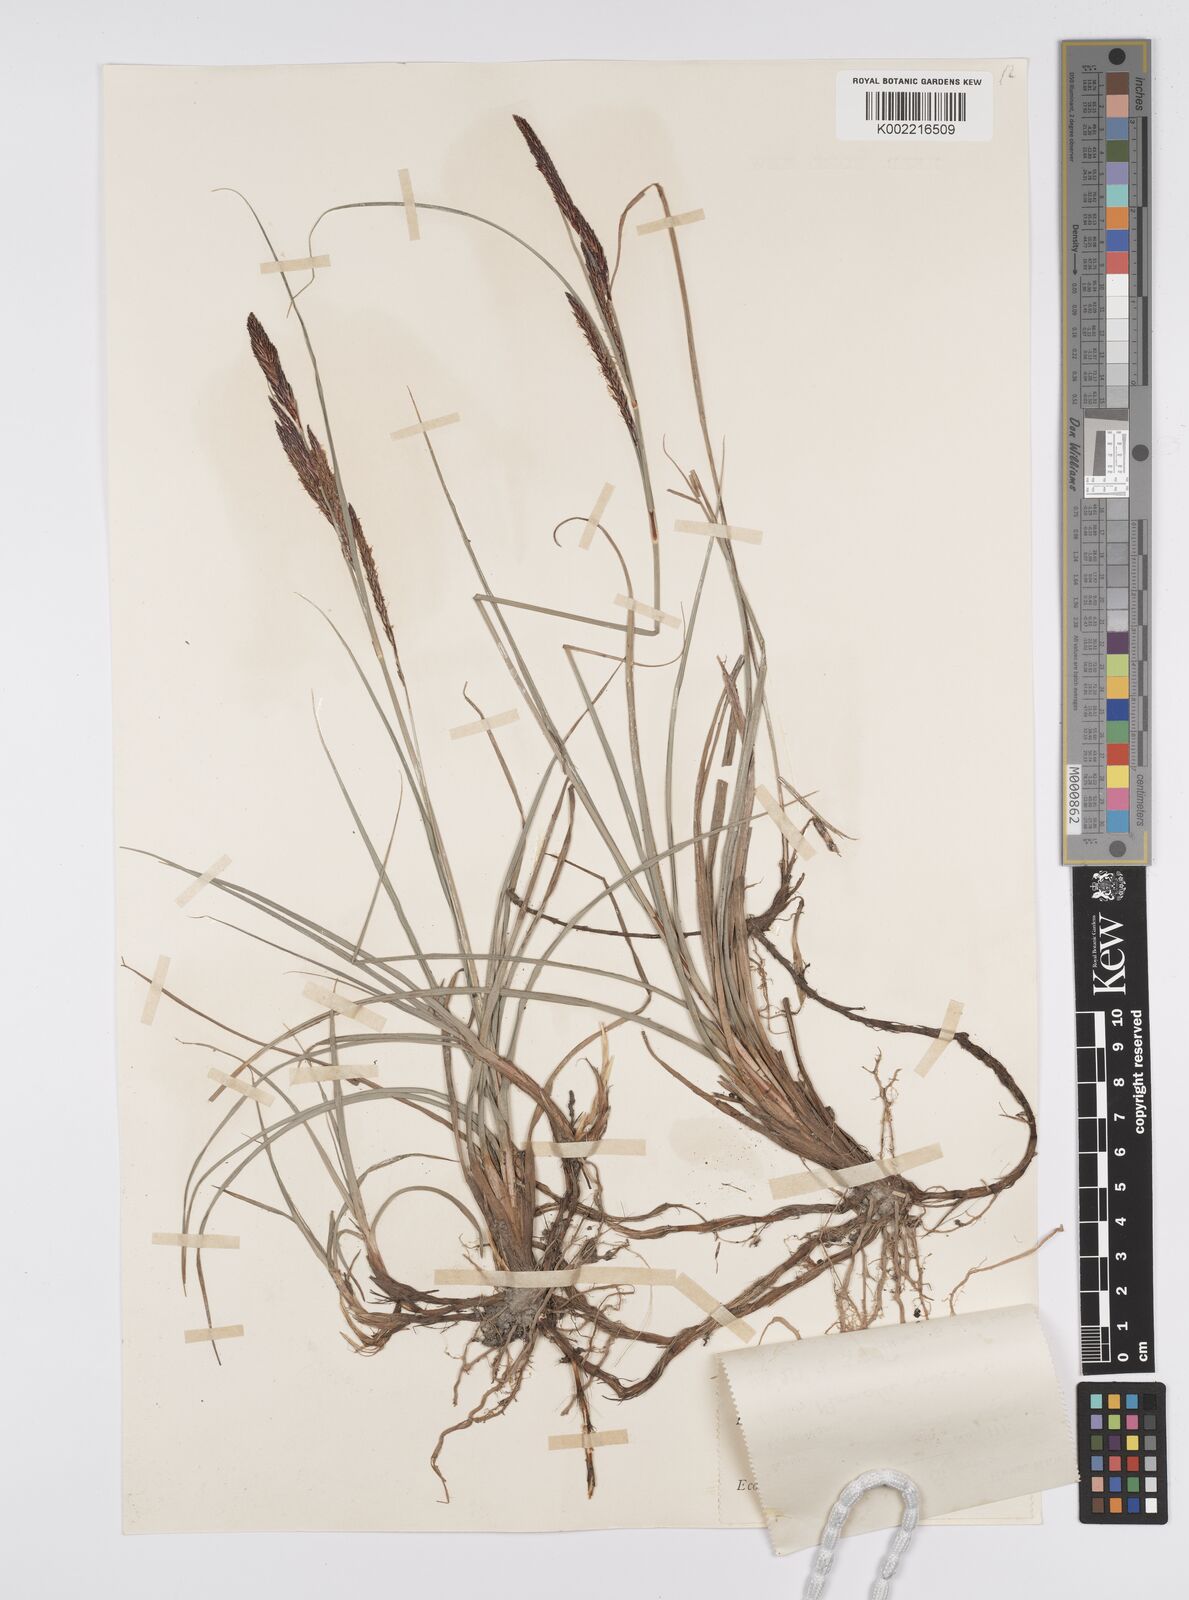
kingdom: Plantae
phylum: Tracheophyta
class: Liliopsida
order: Poales
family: Cyperaceae
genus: Carex
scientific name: Carex flacca
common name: Glaucous sedge
